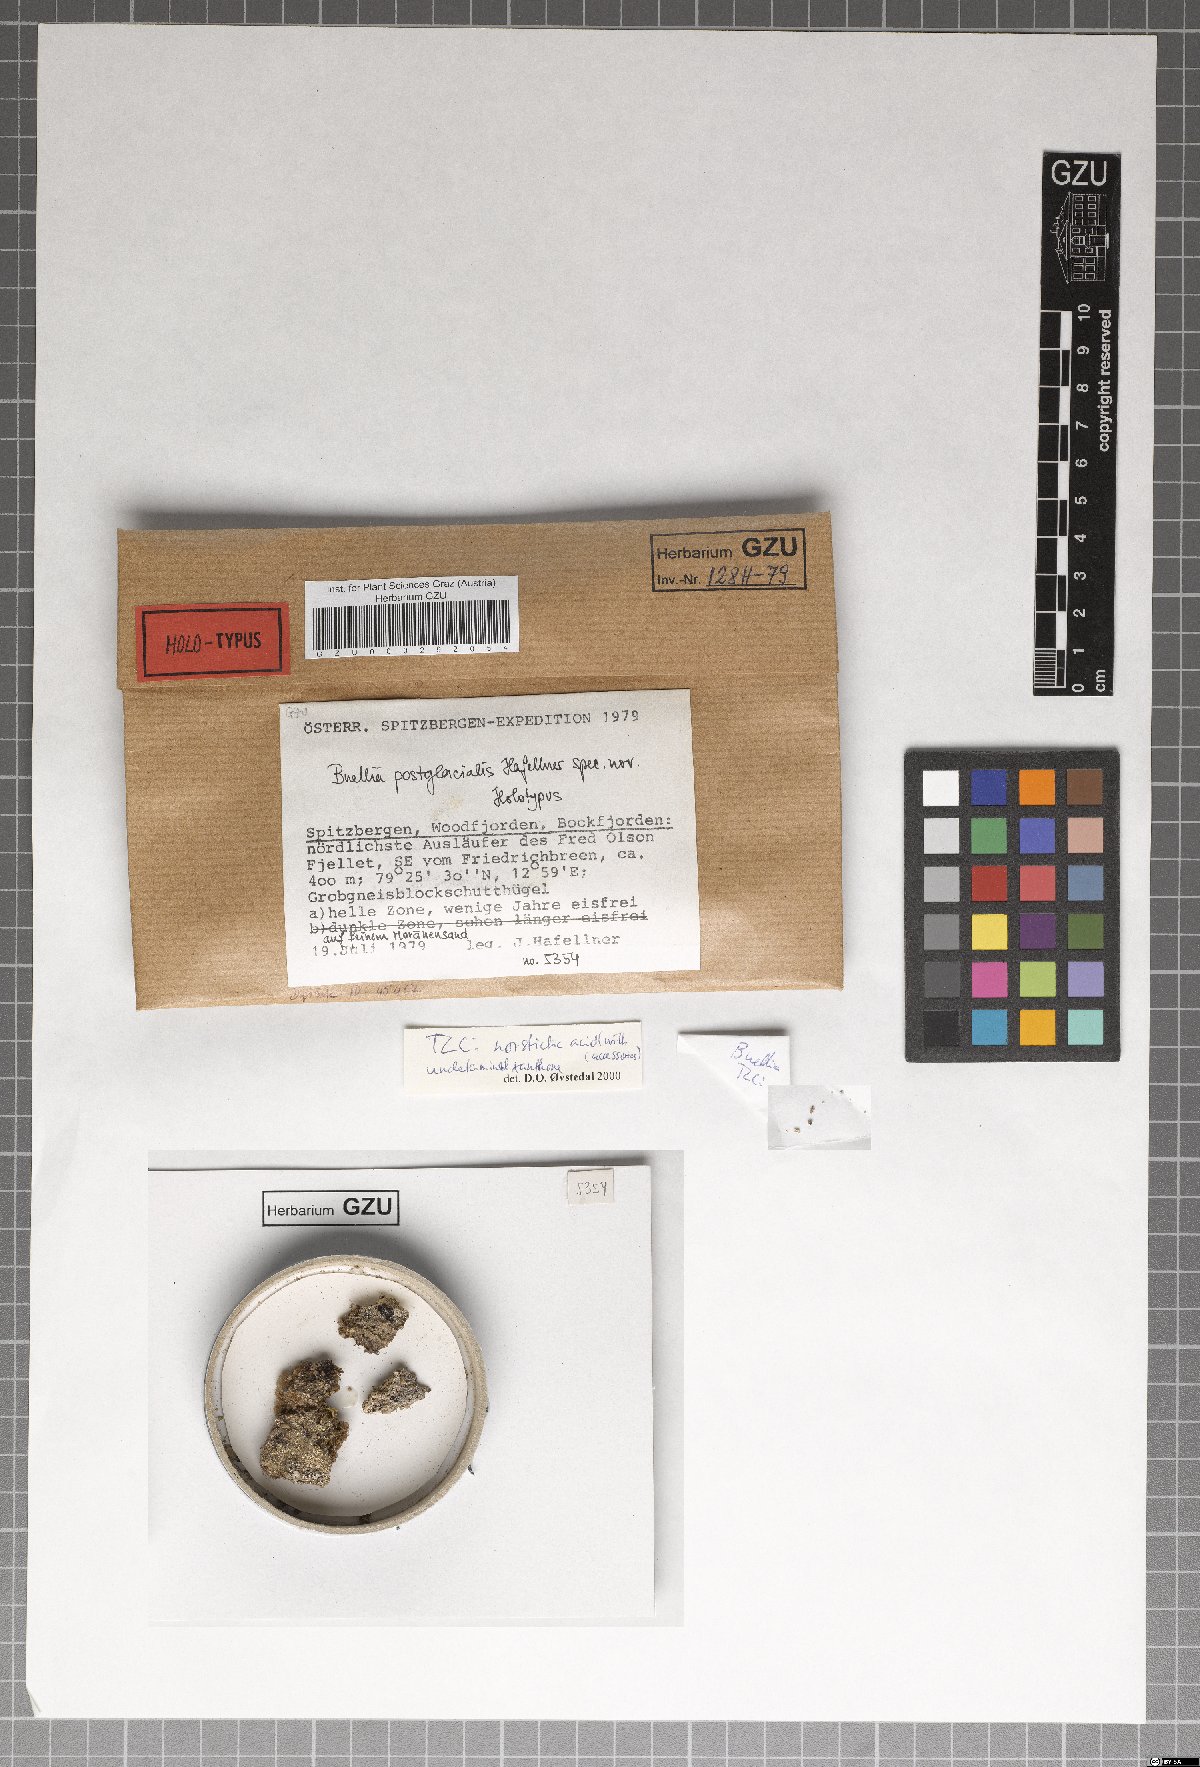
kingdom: Fungi
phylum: Ascomycota
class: Lecanoromycetes
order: Caliciales
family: Caliciaceae
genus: Buellia
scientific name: Buellia postglacialis
